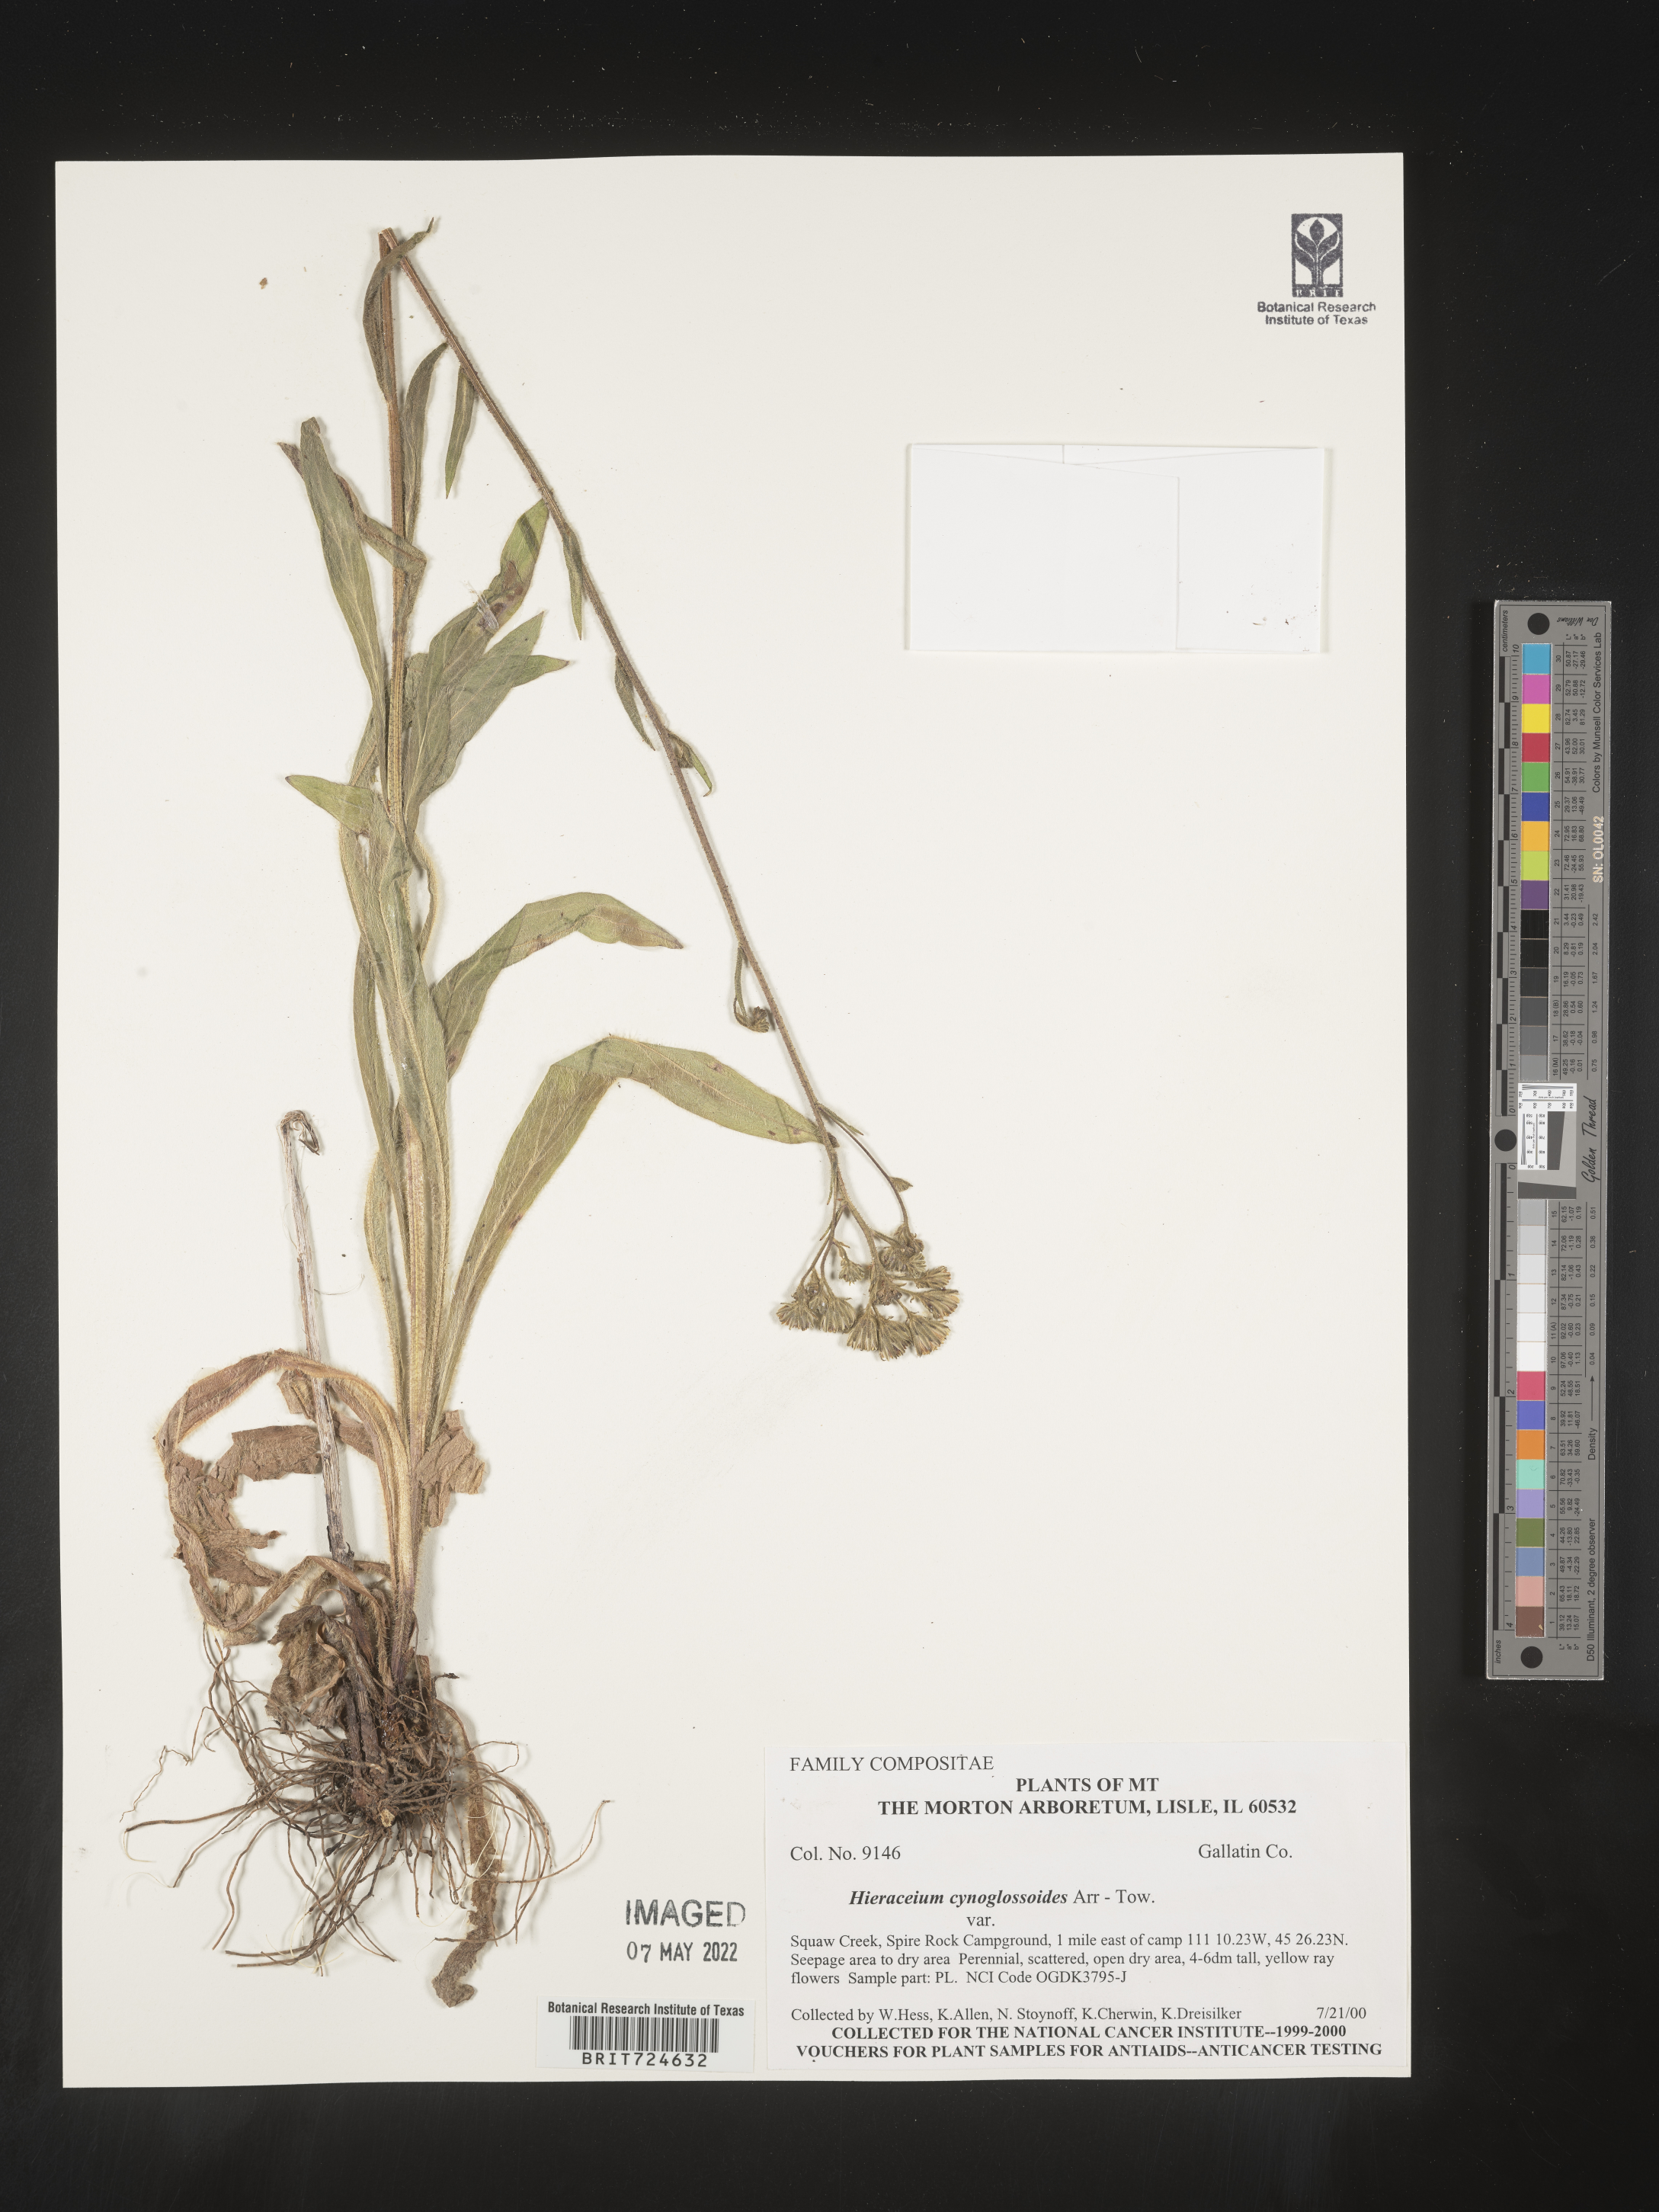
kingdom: Plantae
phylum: Tracheophyta
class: Magnoliopsida
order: Asterales
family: Asteraceae
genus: Hieracium
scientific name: Hieracium scouleri
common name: Hound's-tongue hawkweed
